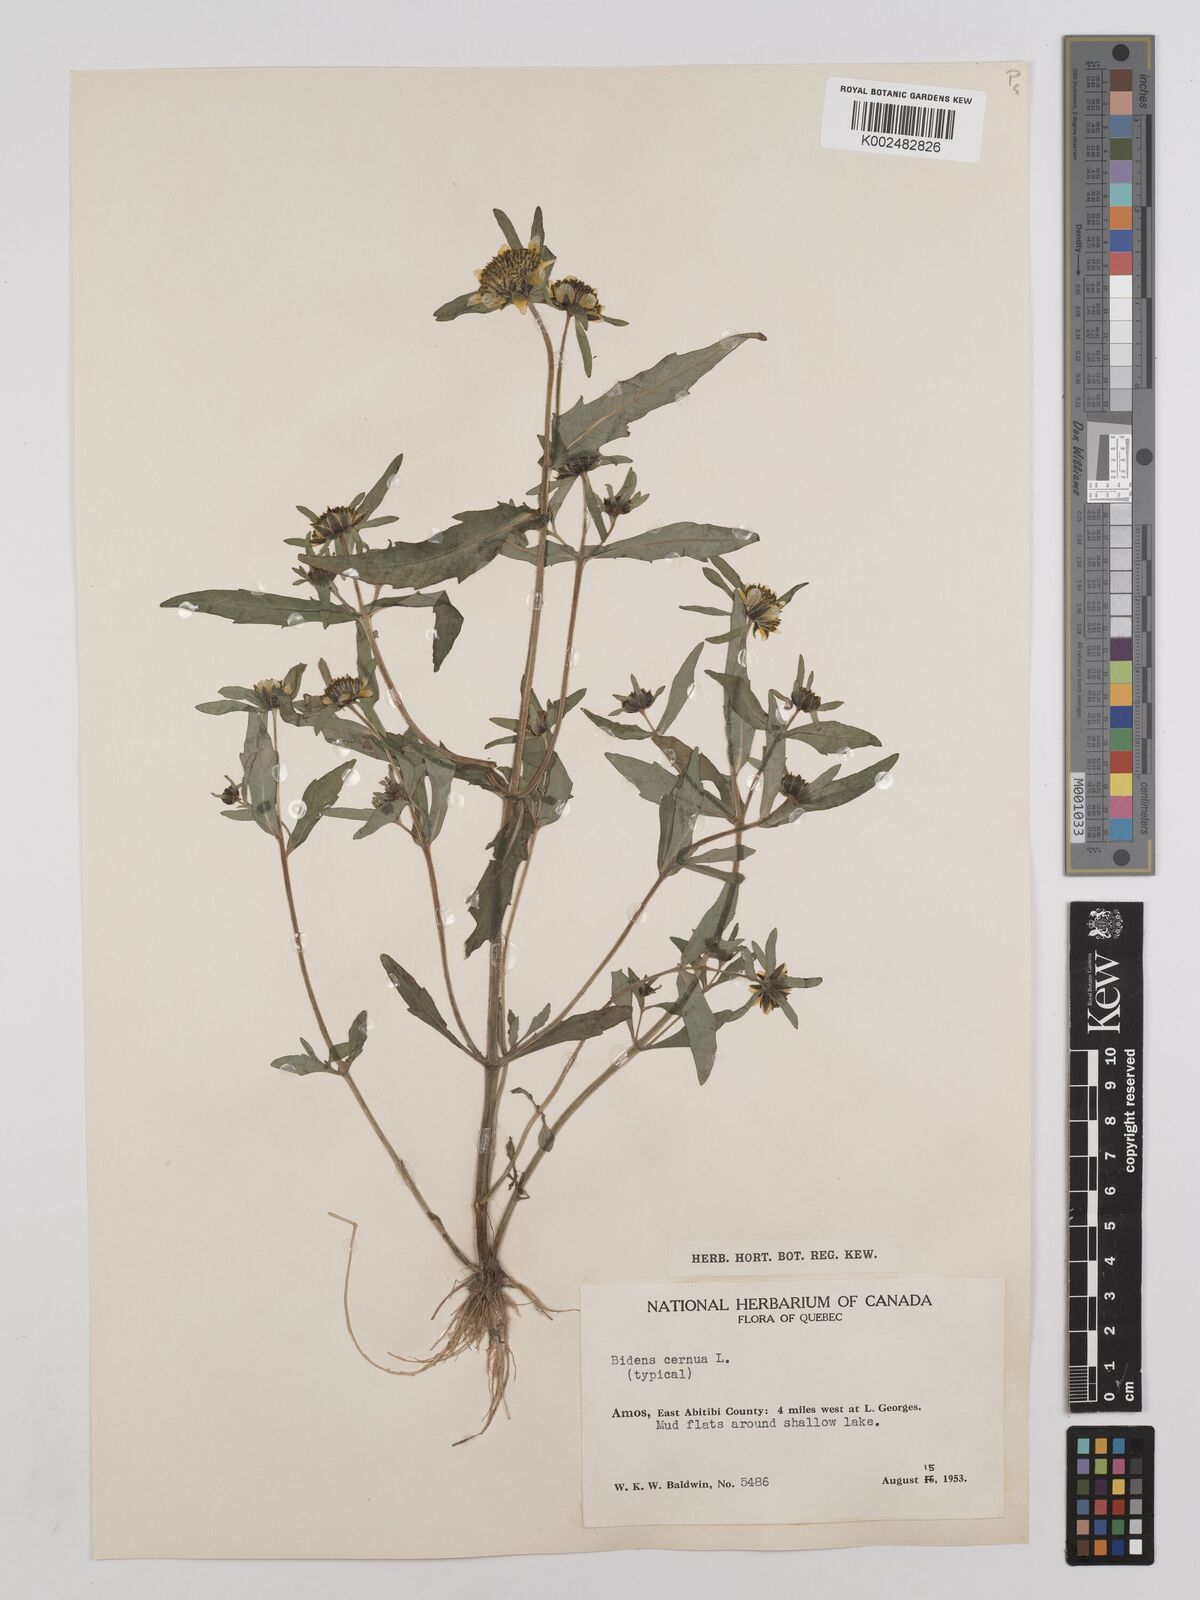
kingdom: Plantae
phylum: Tracheophyta
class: Magnoliopsida
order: Asterales
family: Asteraceae
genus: Bidens
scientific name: Bidens connata
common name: London bur-marigold
